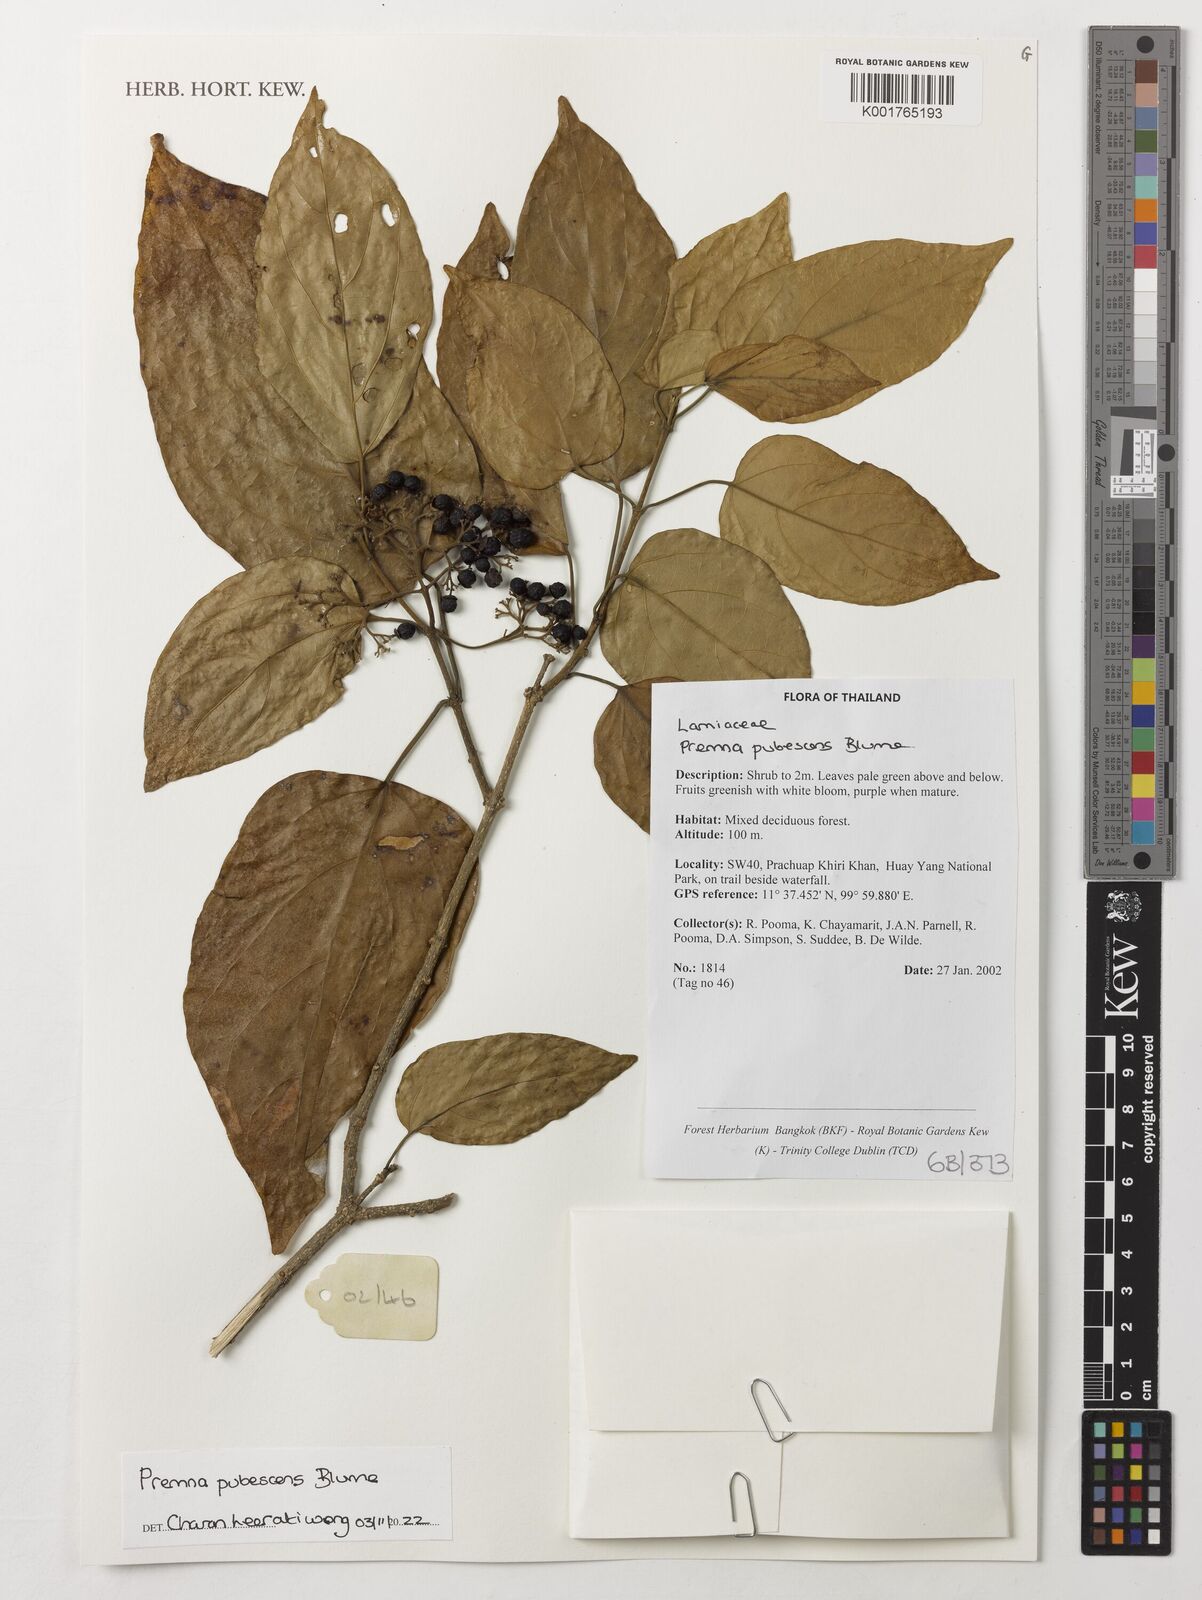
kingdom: Plantae
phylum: Tracheophyta
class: Magnoliopsida
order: Lamiales
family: Lamiaceae
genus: Premna
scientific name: Premna pubescens
